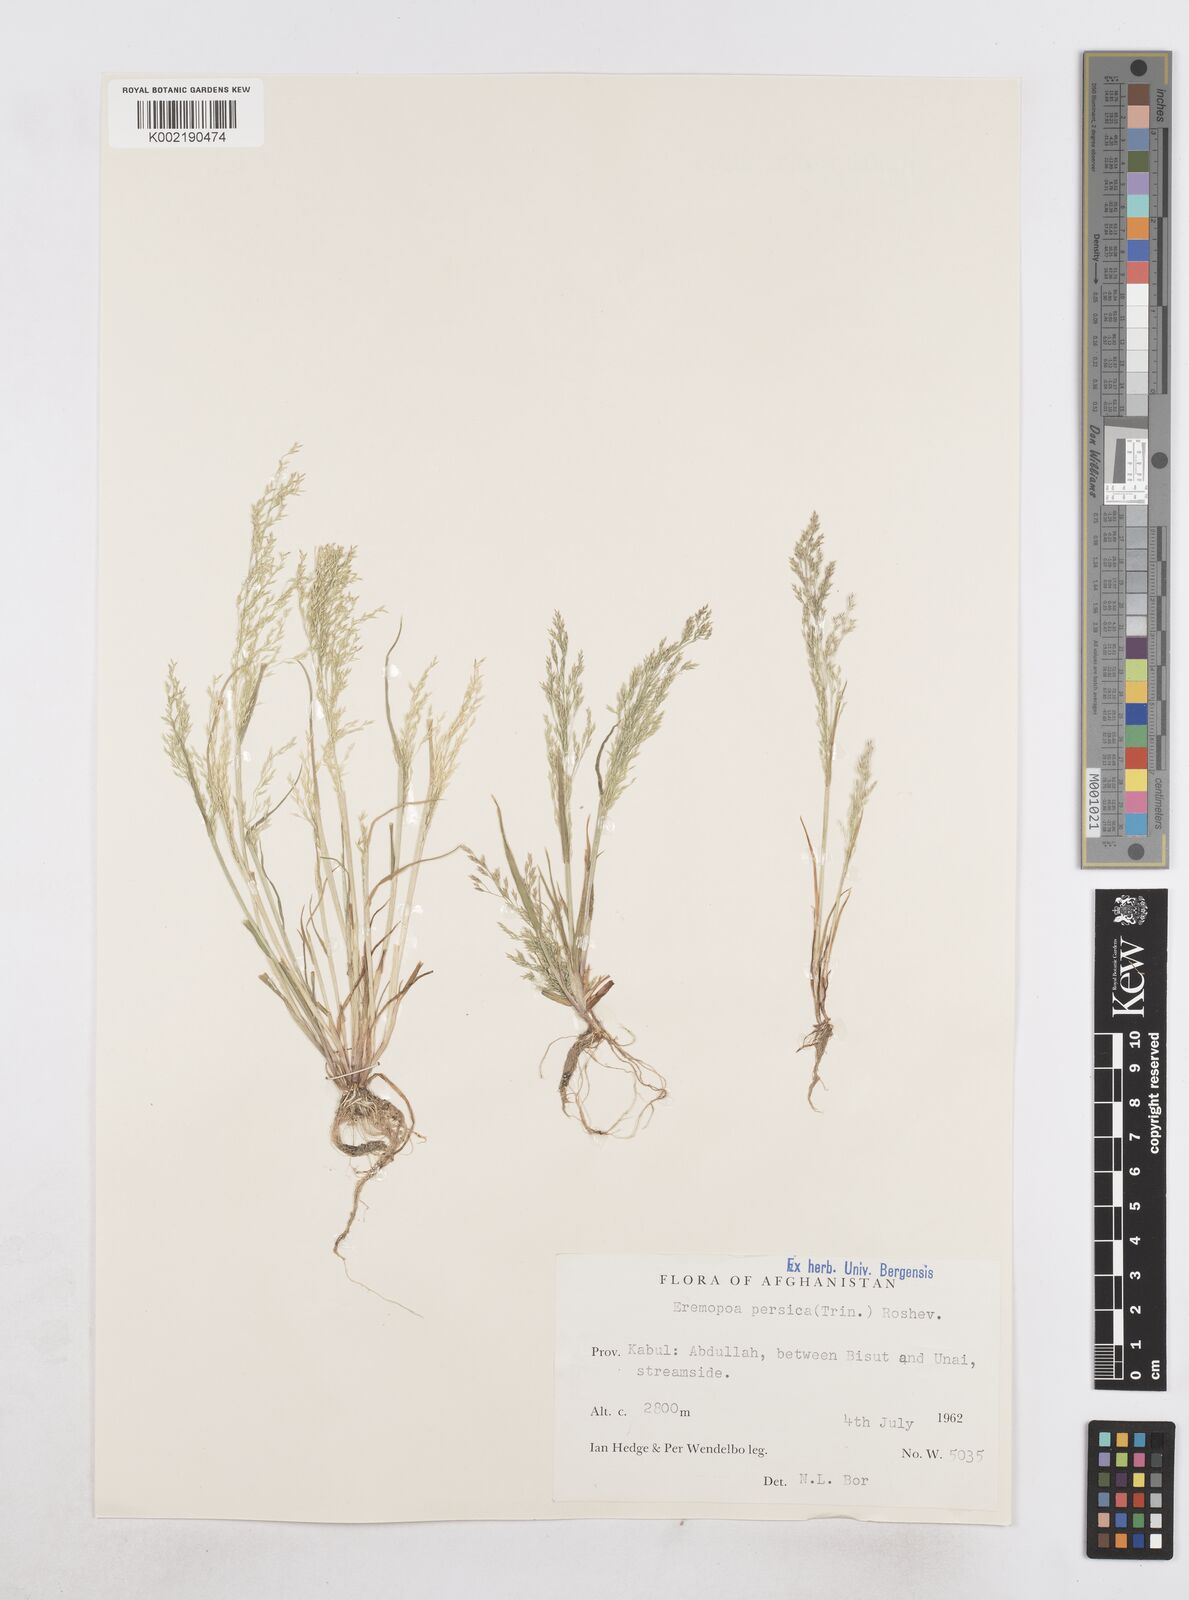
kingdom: Plantae
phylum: Tracheophyta
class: Liliopsida
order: Poales
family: Poaceae
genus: Poa
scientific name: Poa diaphora
